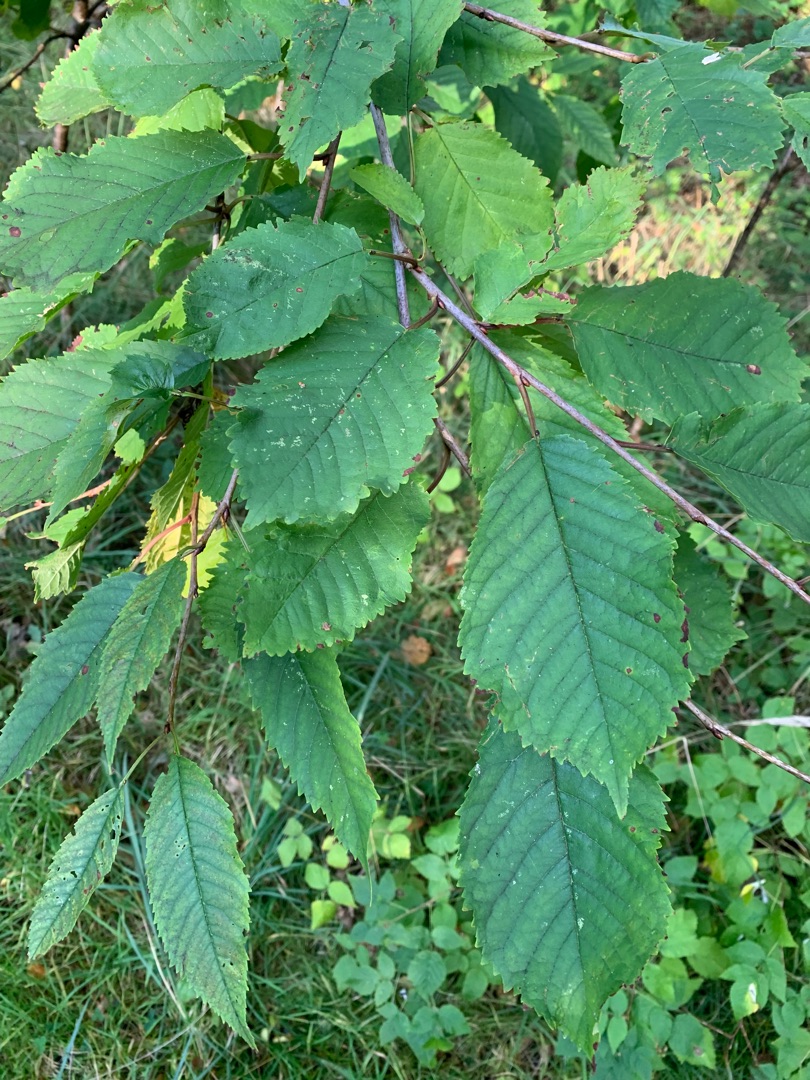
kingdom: Plantae
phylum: Tracheophyta
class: Magnoliopsida
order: Rosales
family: Rosaceae
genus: Prunus
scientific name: Prunus avium
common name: Fugle-kirsebær
